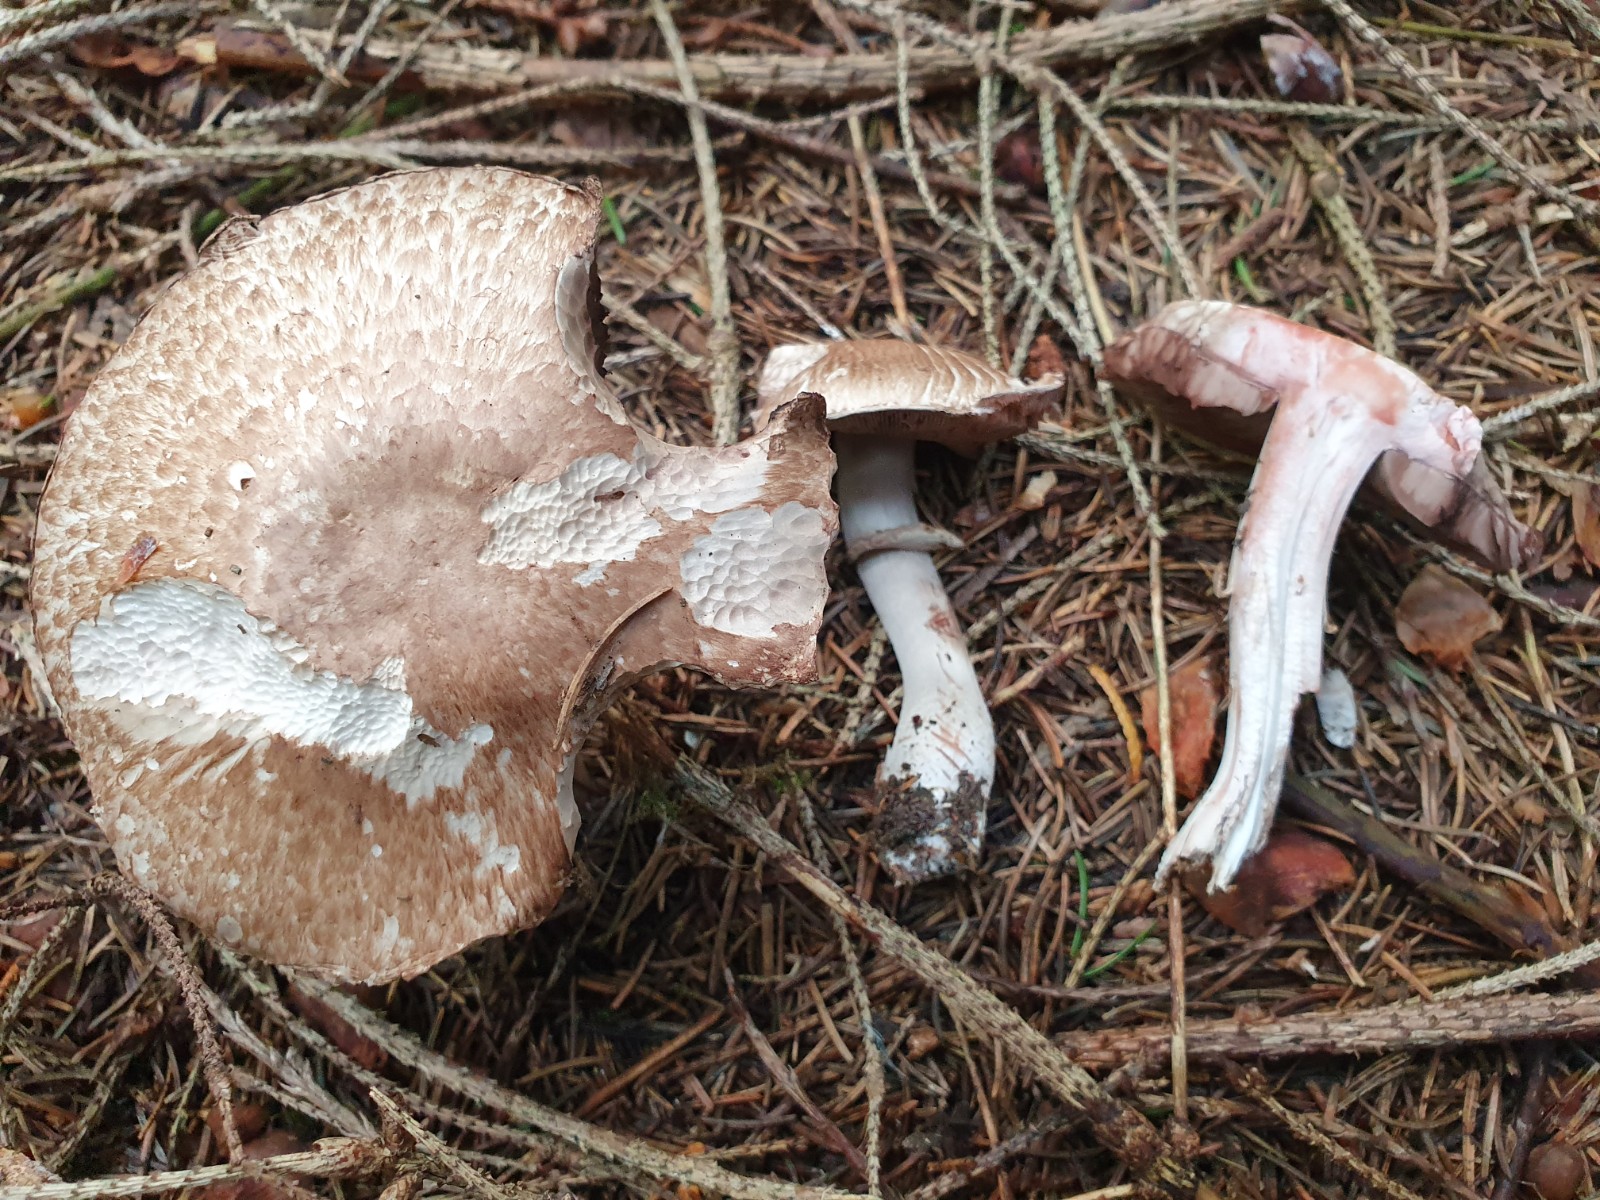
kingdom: Fungi
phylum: Basidiomycota
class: Agaricomycetes
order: Agaricales
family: Agaricaceae
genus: Agaricus
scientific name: Agaricus sylvaticus
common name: lille blod-champignon
